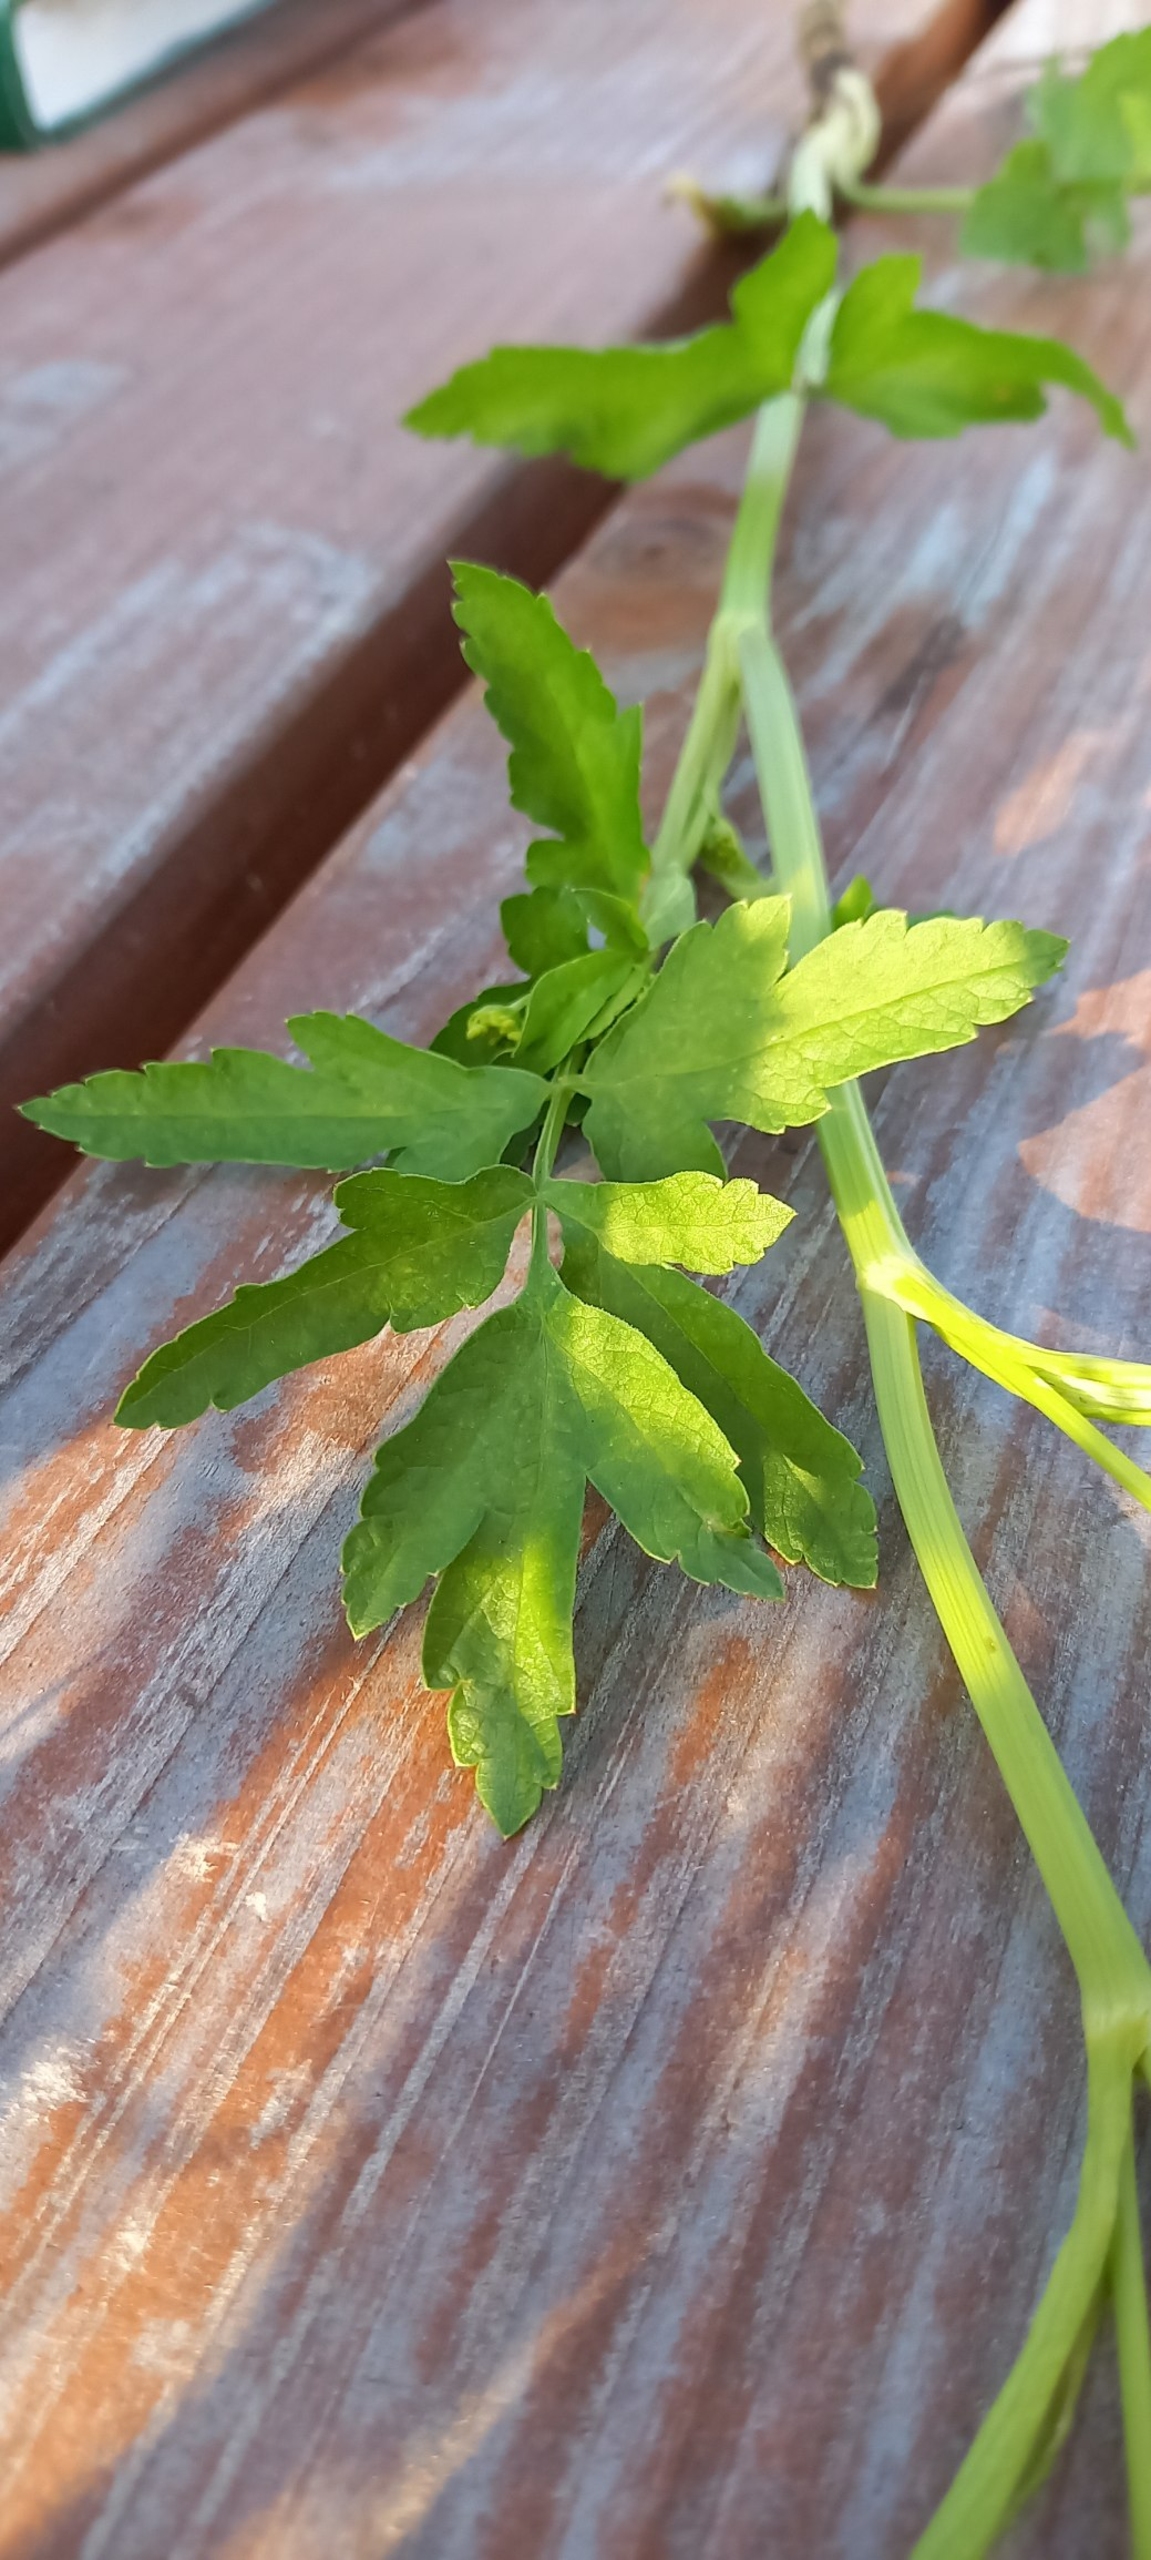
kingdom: Plantae
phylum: Tracheophyta
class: Magnoliopsida
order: Apiales
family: Apiaceae
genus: Pastinaca
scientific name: Pastinaca sativa
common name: Pastinak
